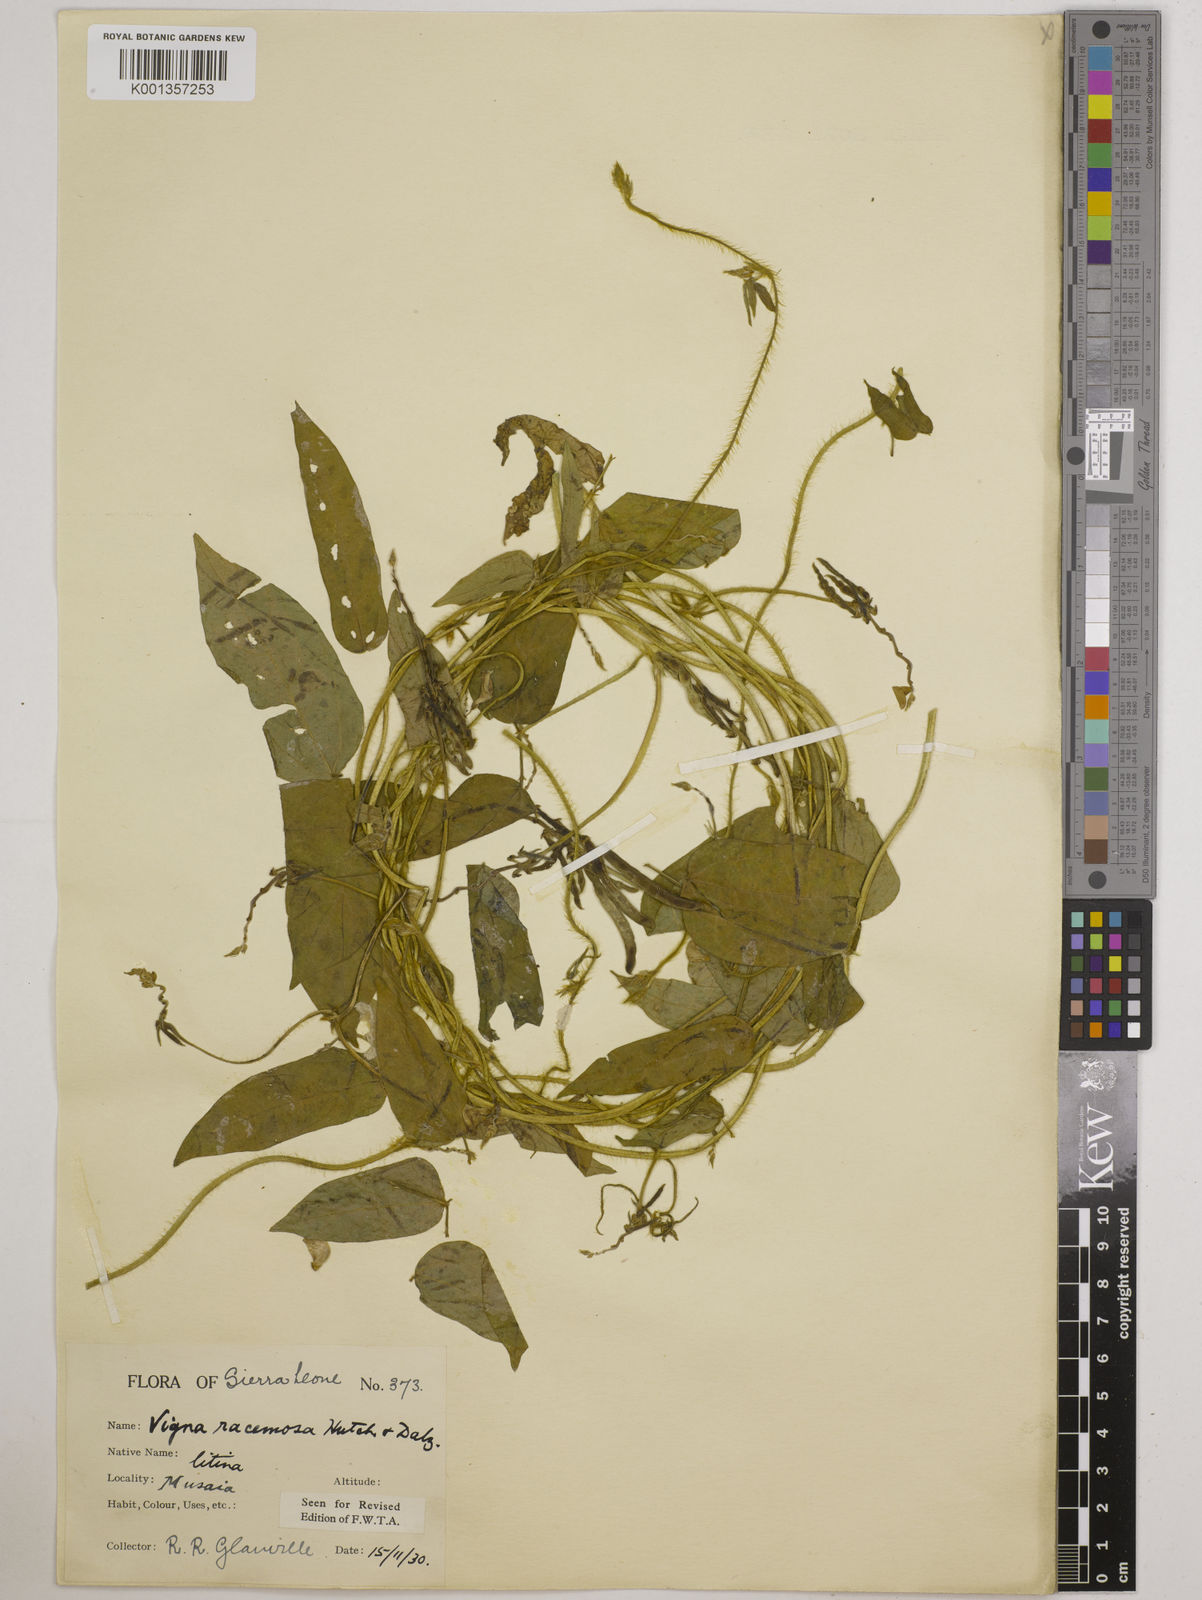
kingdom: Plantae
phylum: Tracheophyta
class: Magnoliopsida
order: Fabales
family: Fabaceae
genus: Vigna
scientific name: Vigna racemosa
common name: Beans not eaten
